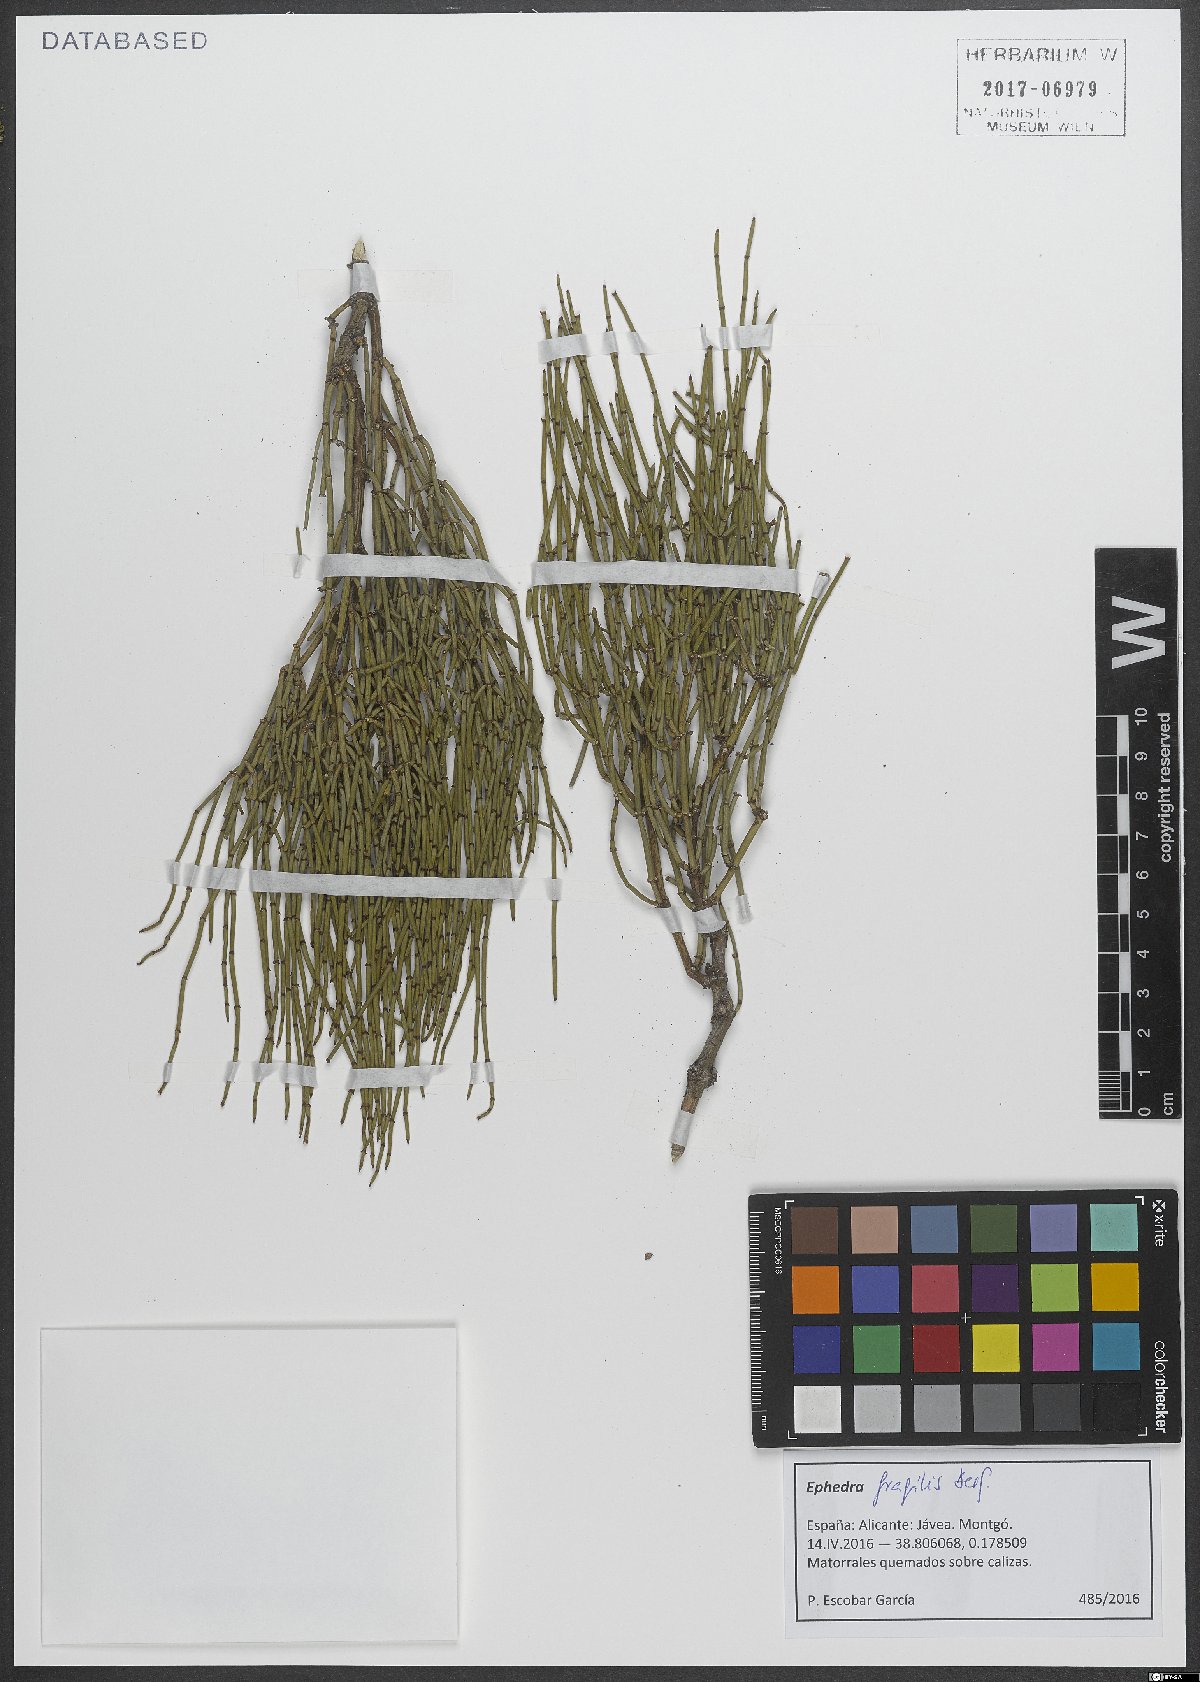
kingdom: Plantae
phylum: Tracheophyta
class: Gnetopsida
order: Ephedrales
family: Ephedraceae
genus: Ephedra
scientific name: Ephedra fragilis
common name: Joint pine
